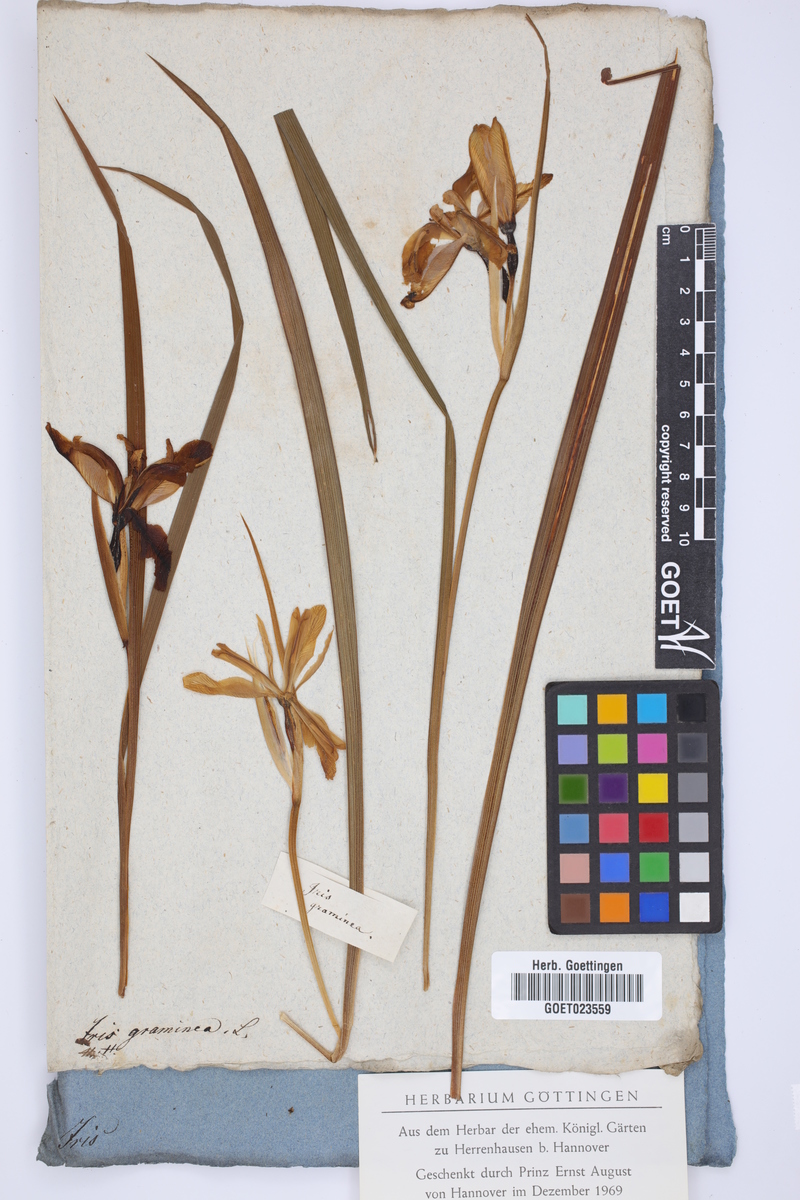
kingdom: Plantae
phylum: Tracheophyta
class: Liliopsida
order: Asparagales
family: Iridaceae
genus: Iris
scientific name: Iris graminea
